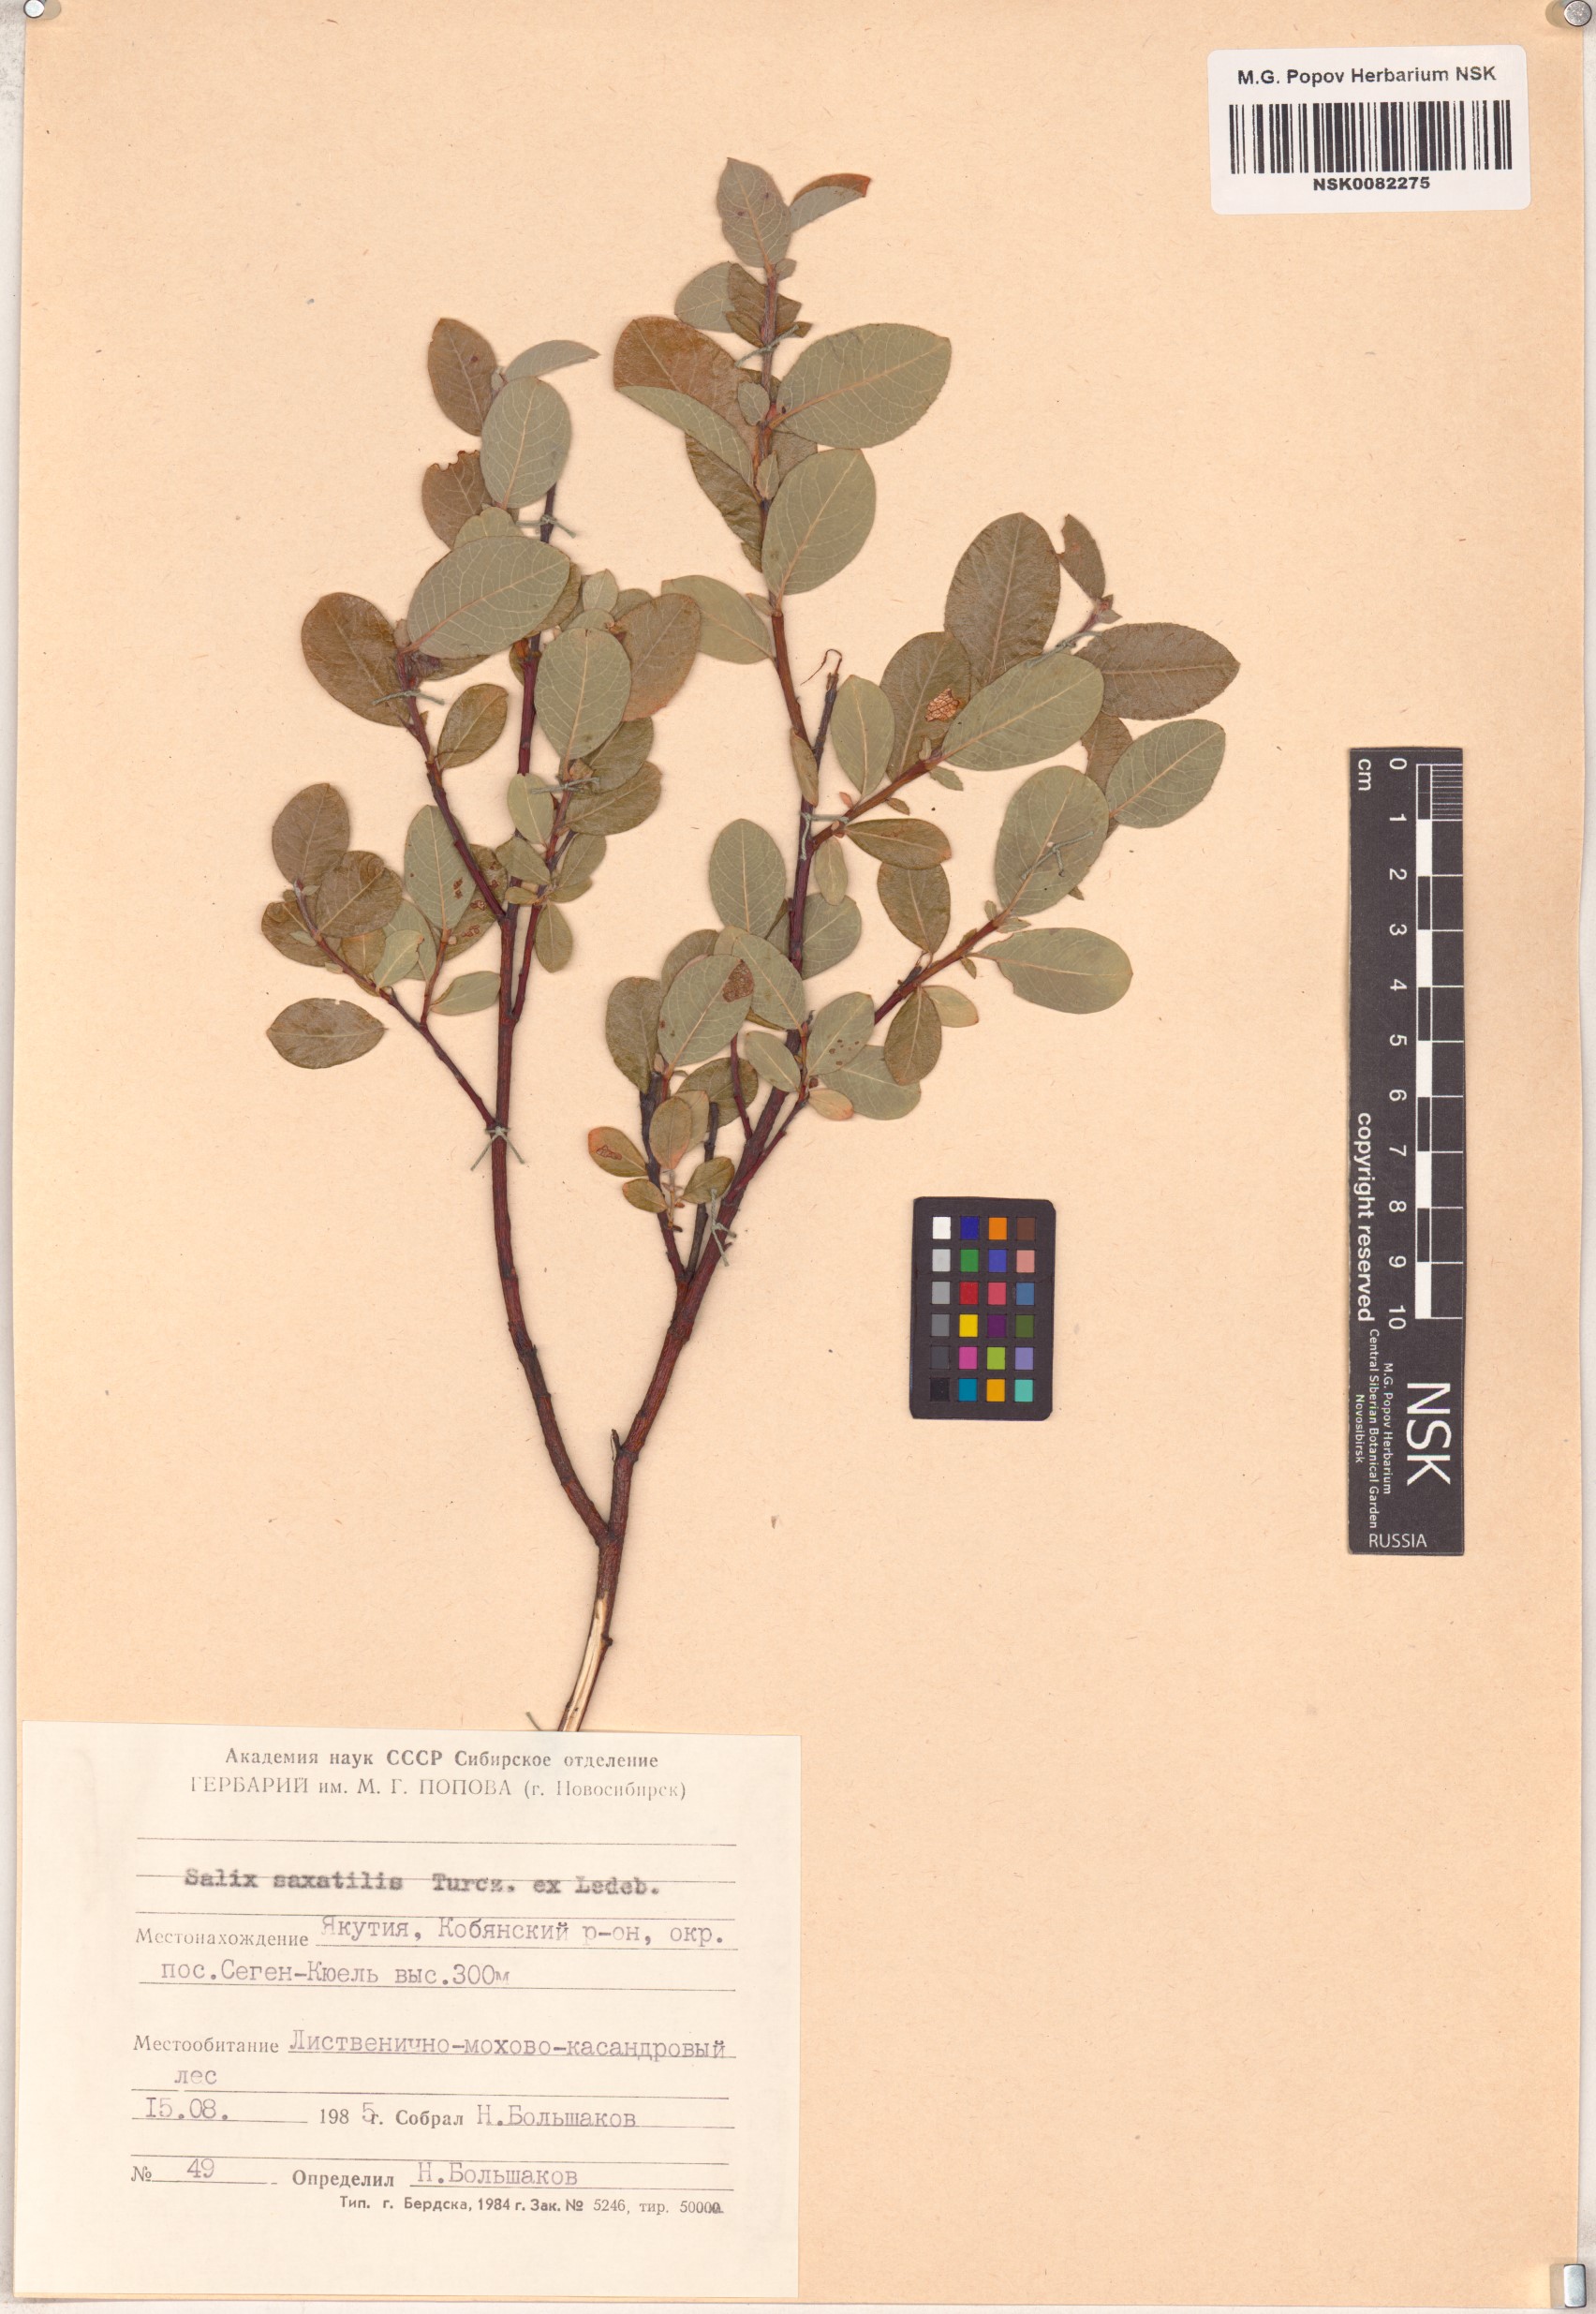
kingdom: Plantae
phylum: Tracheophyta
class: Magnoliopsida
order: Malpighiales
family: Salicaceae
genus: Salix
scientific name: Salix saxatilis
